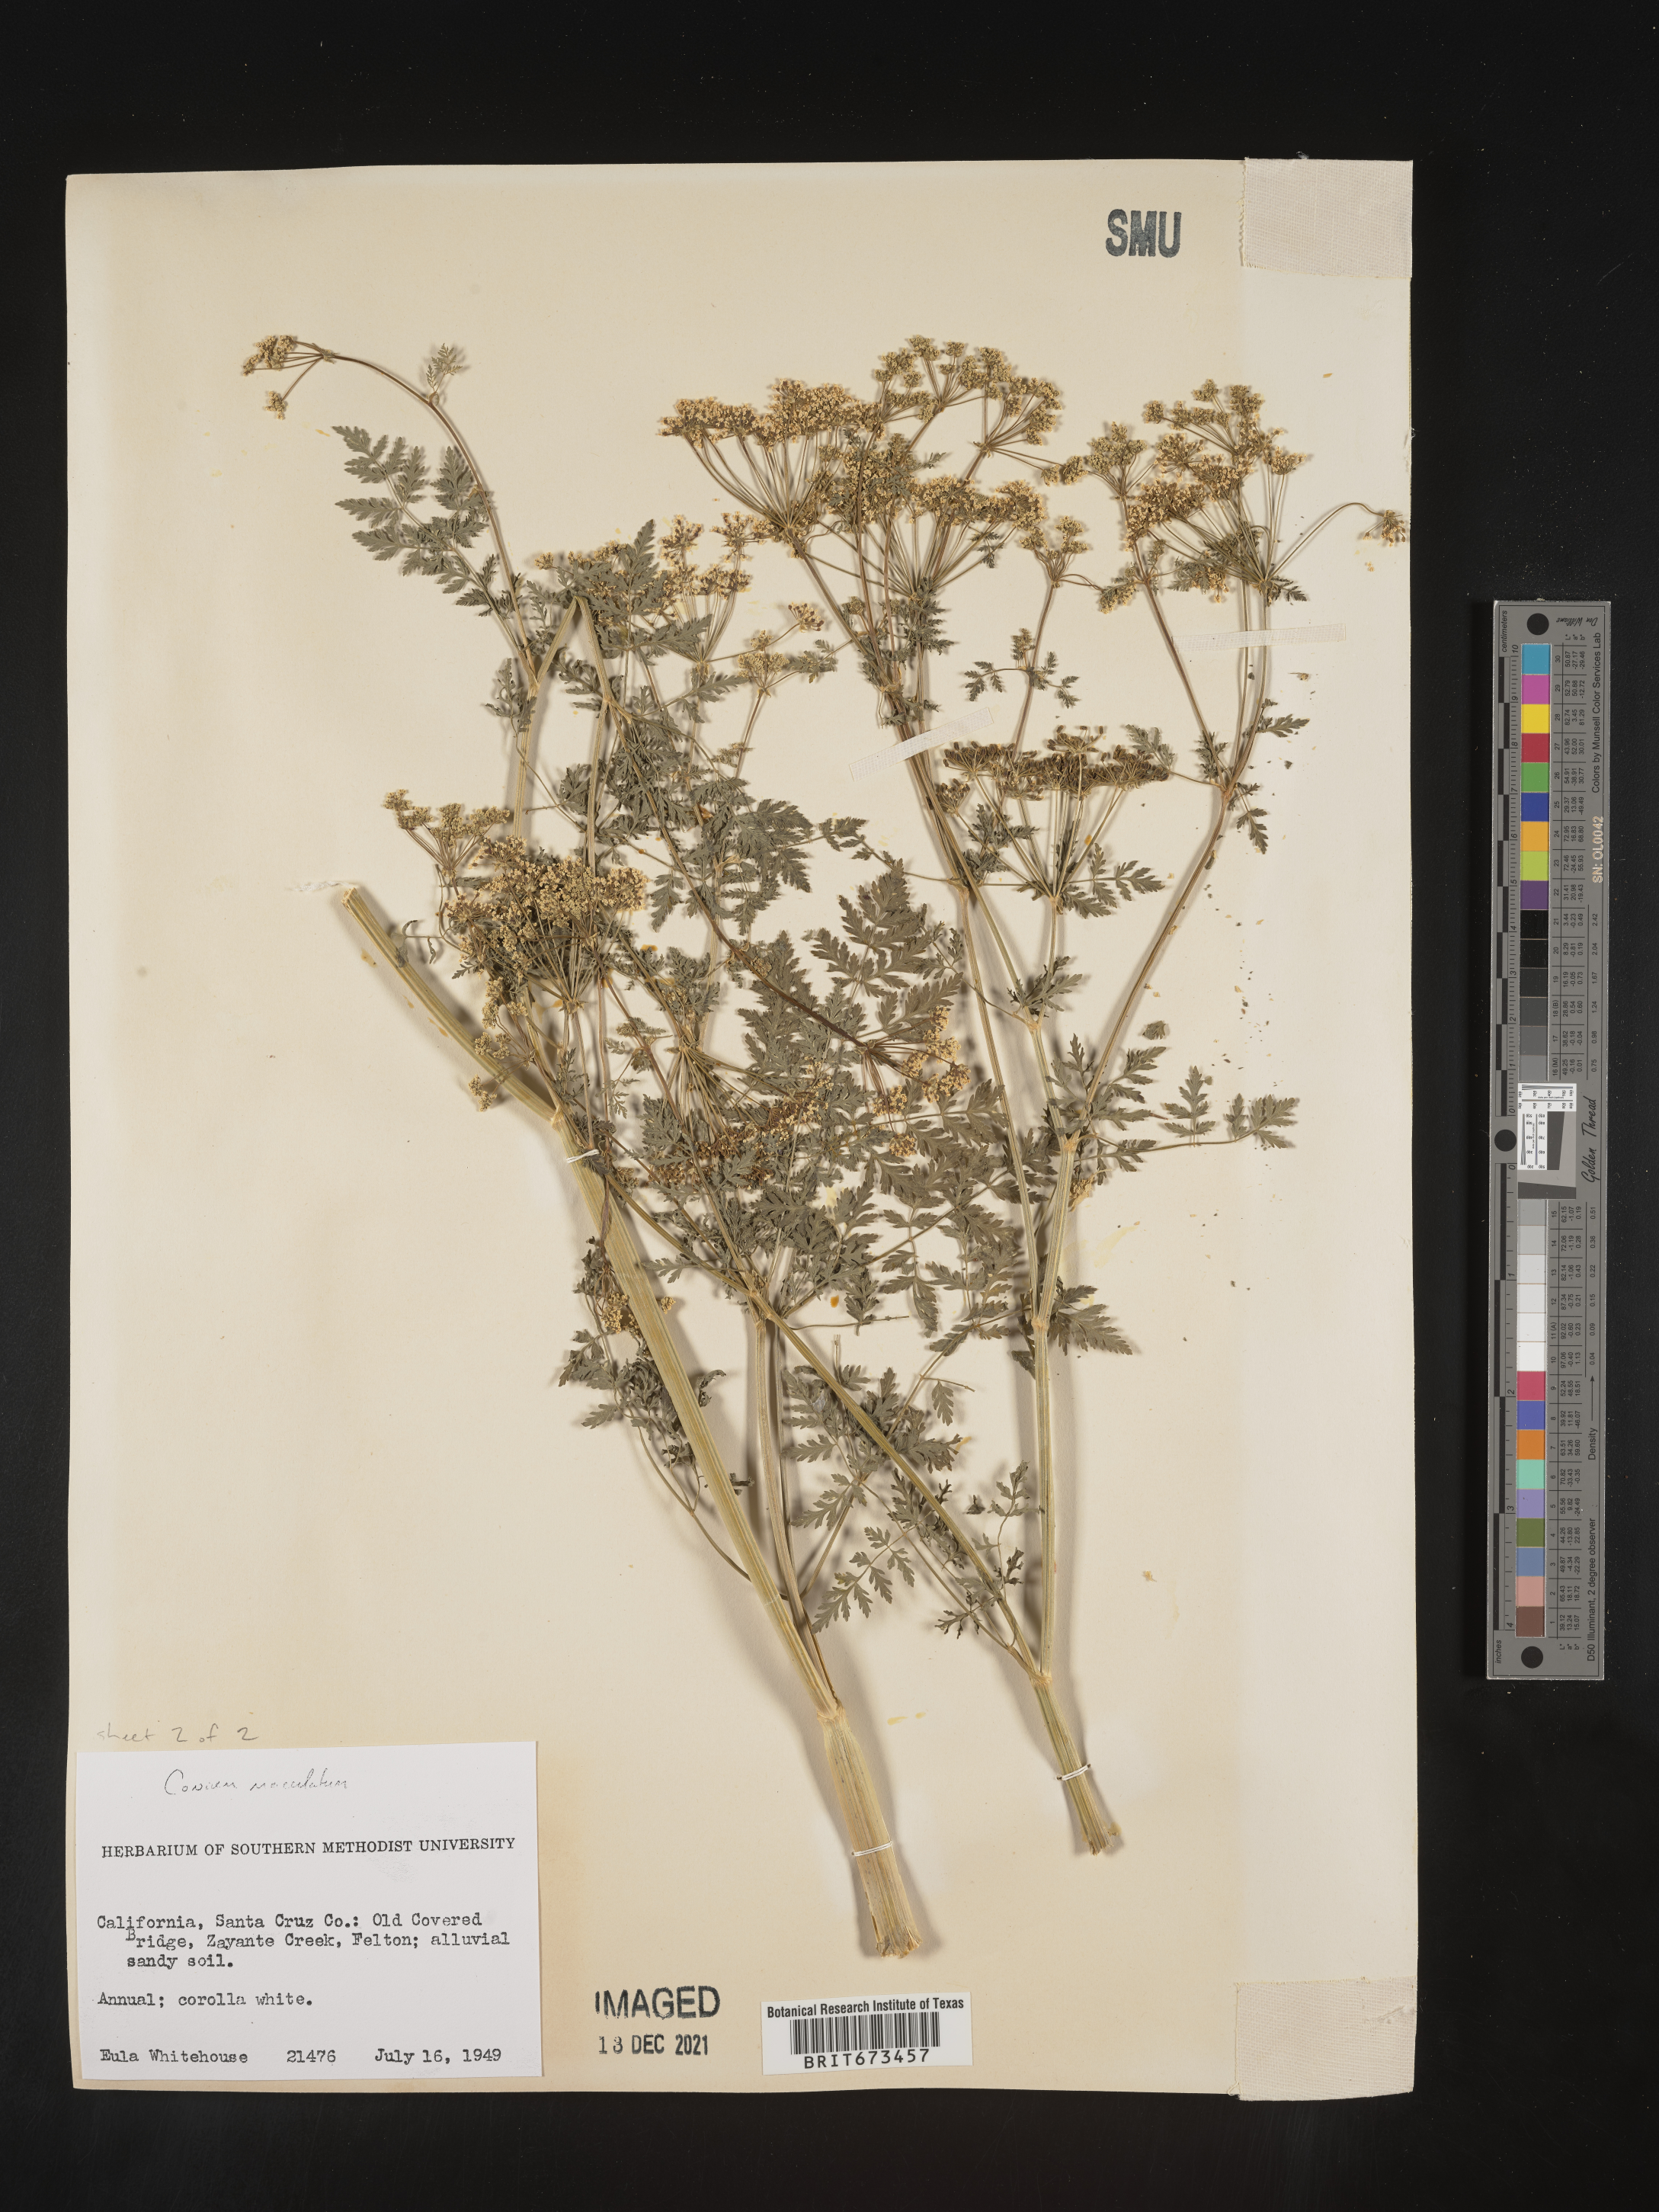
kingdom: Plantae
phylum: Tracheophyta
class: Magnoliopsida
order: Apiales
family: Apiaceae
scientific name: Apiaceae
